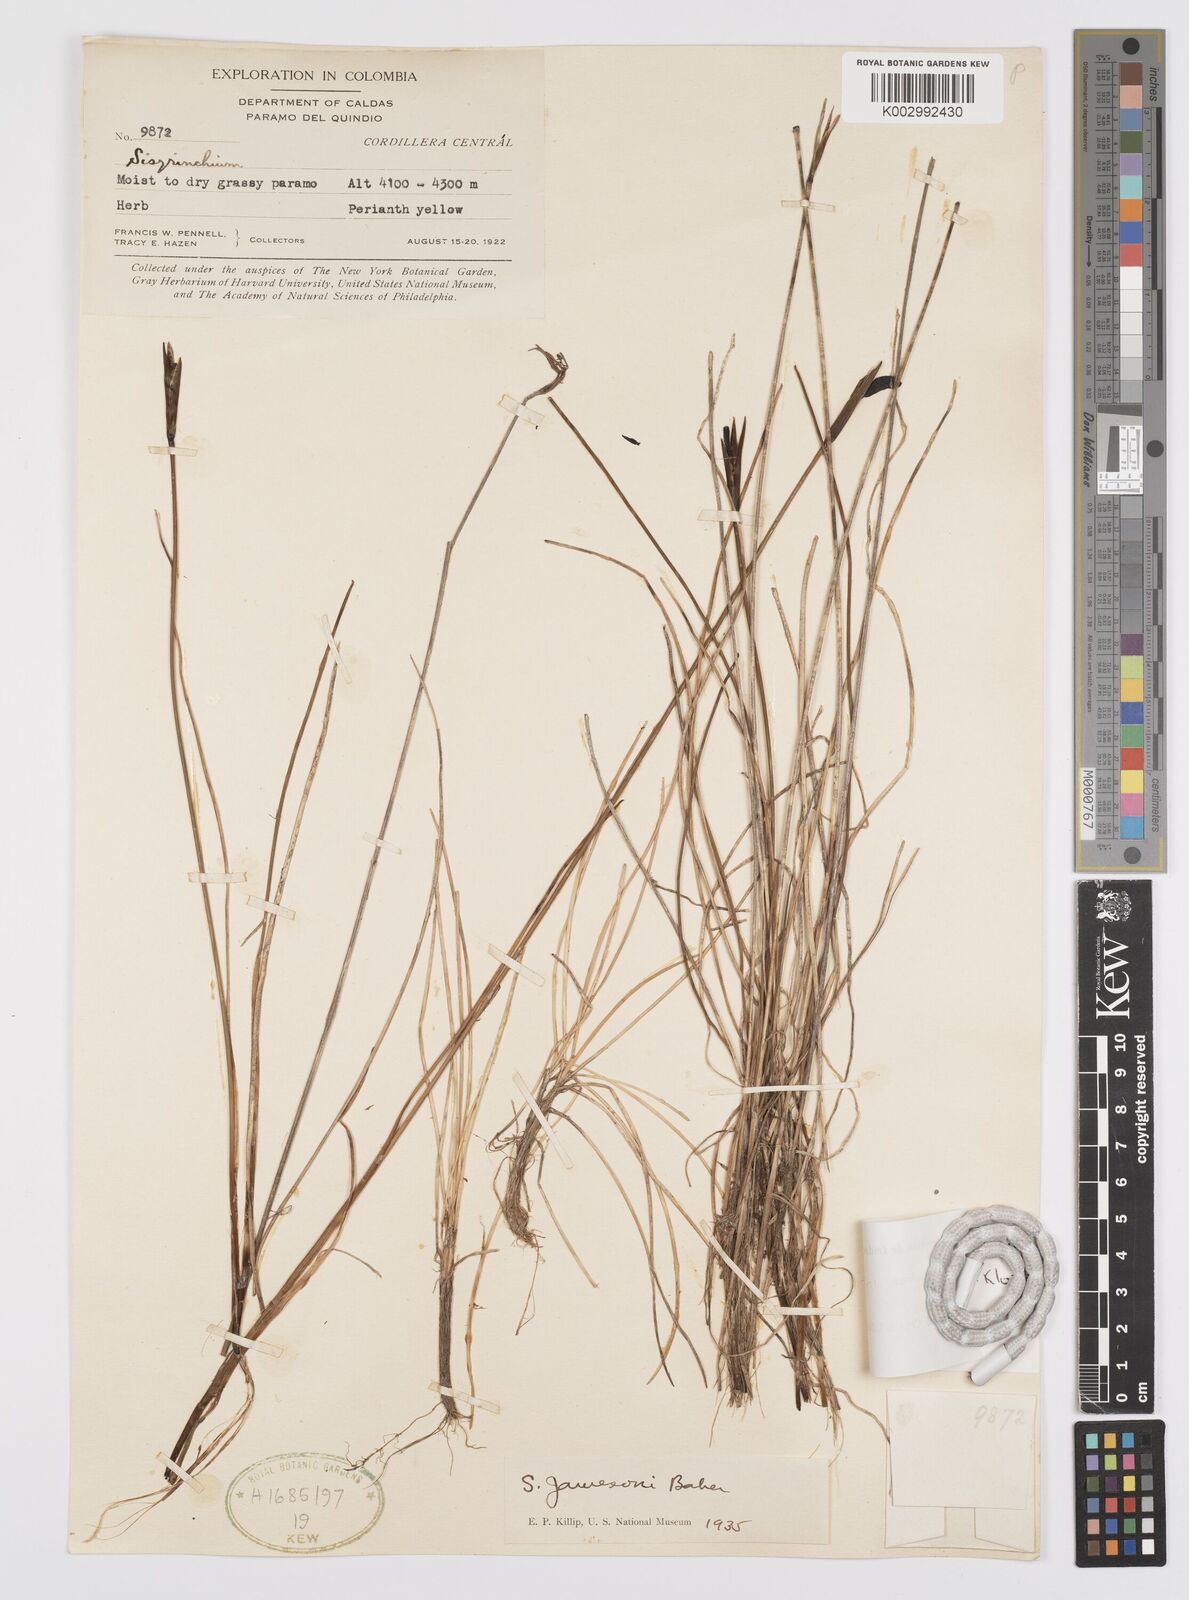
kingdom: Plantae
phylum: Tracheophyta
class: Liliopsida
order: Asparagales
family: Iridaceae
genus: Sisyrinchium
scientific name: Sisyrinchium unispathaceum
